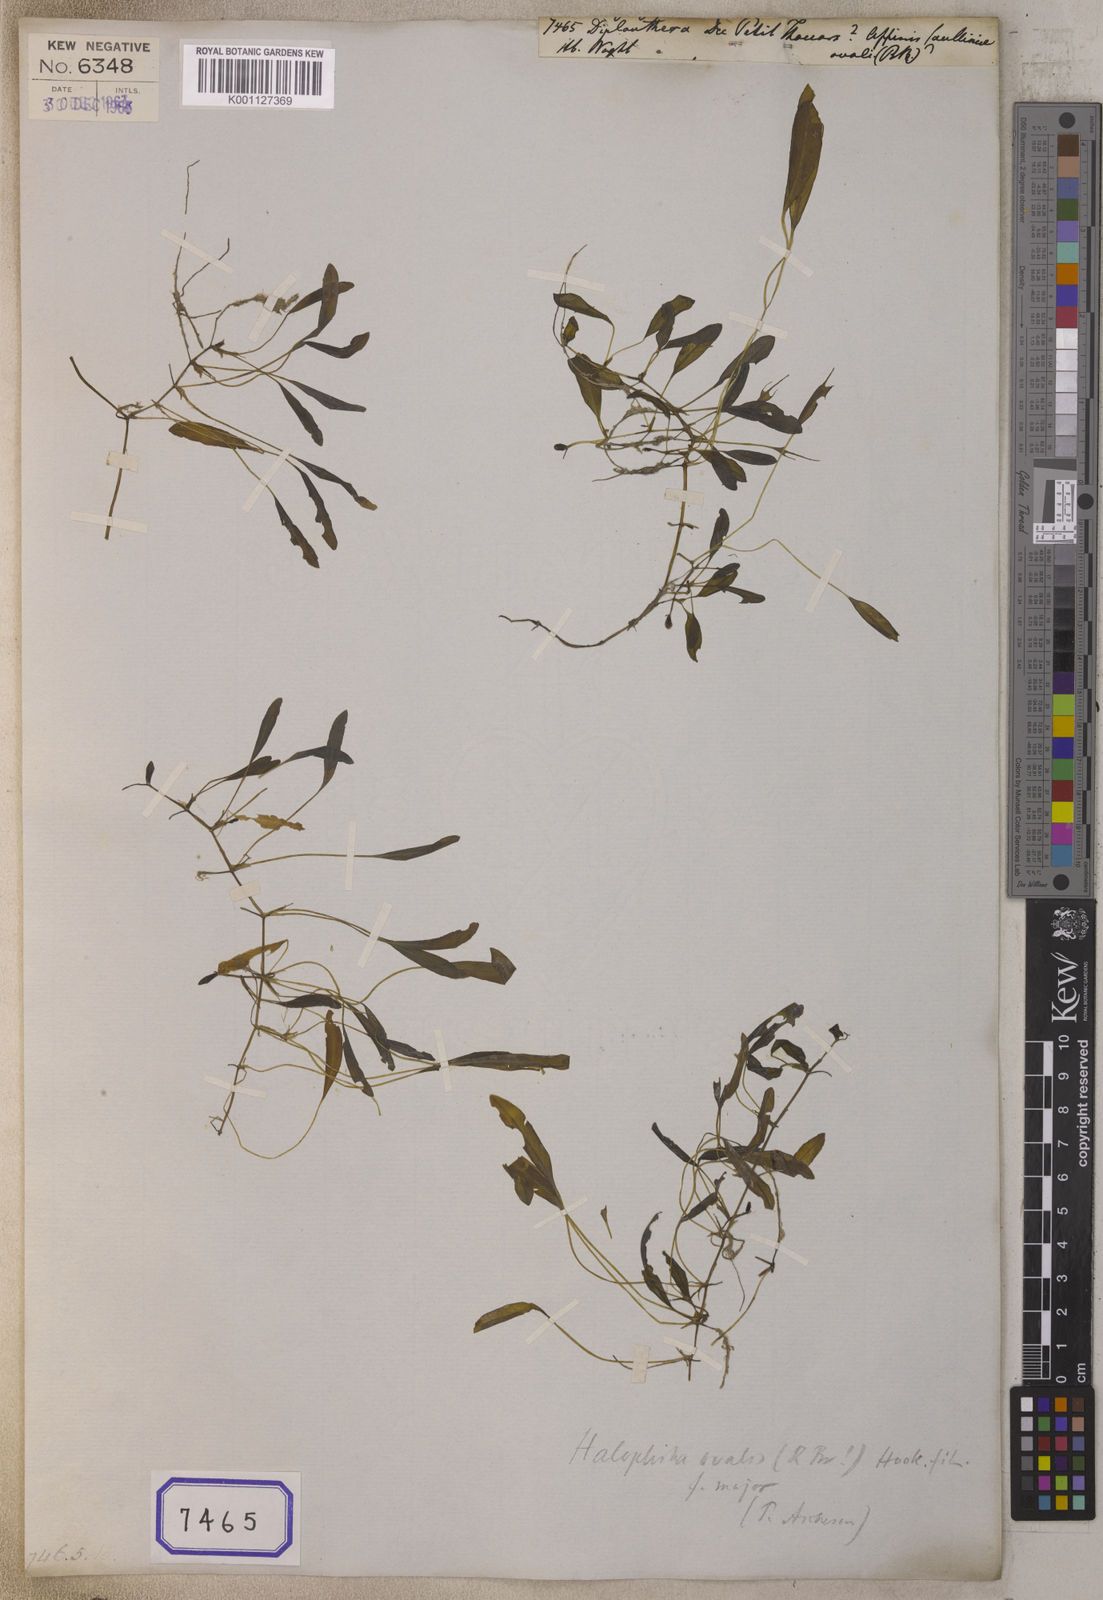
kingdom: Plantae
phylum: Tracheophyta
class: Magnoliopsida
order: Lamiales
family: Acanthaceae
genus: Diplanthera
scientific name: Diplanthera
